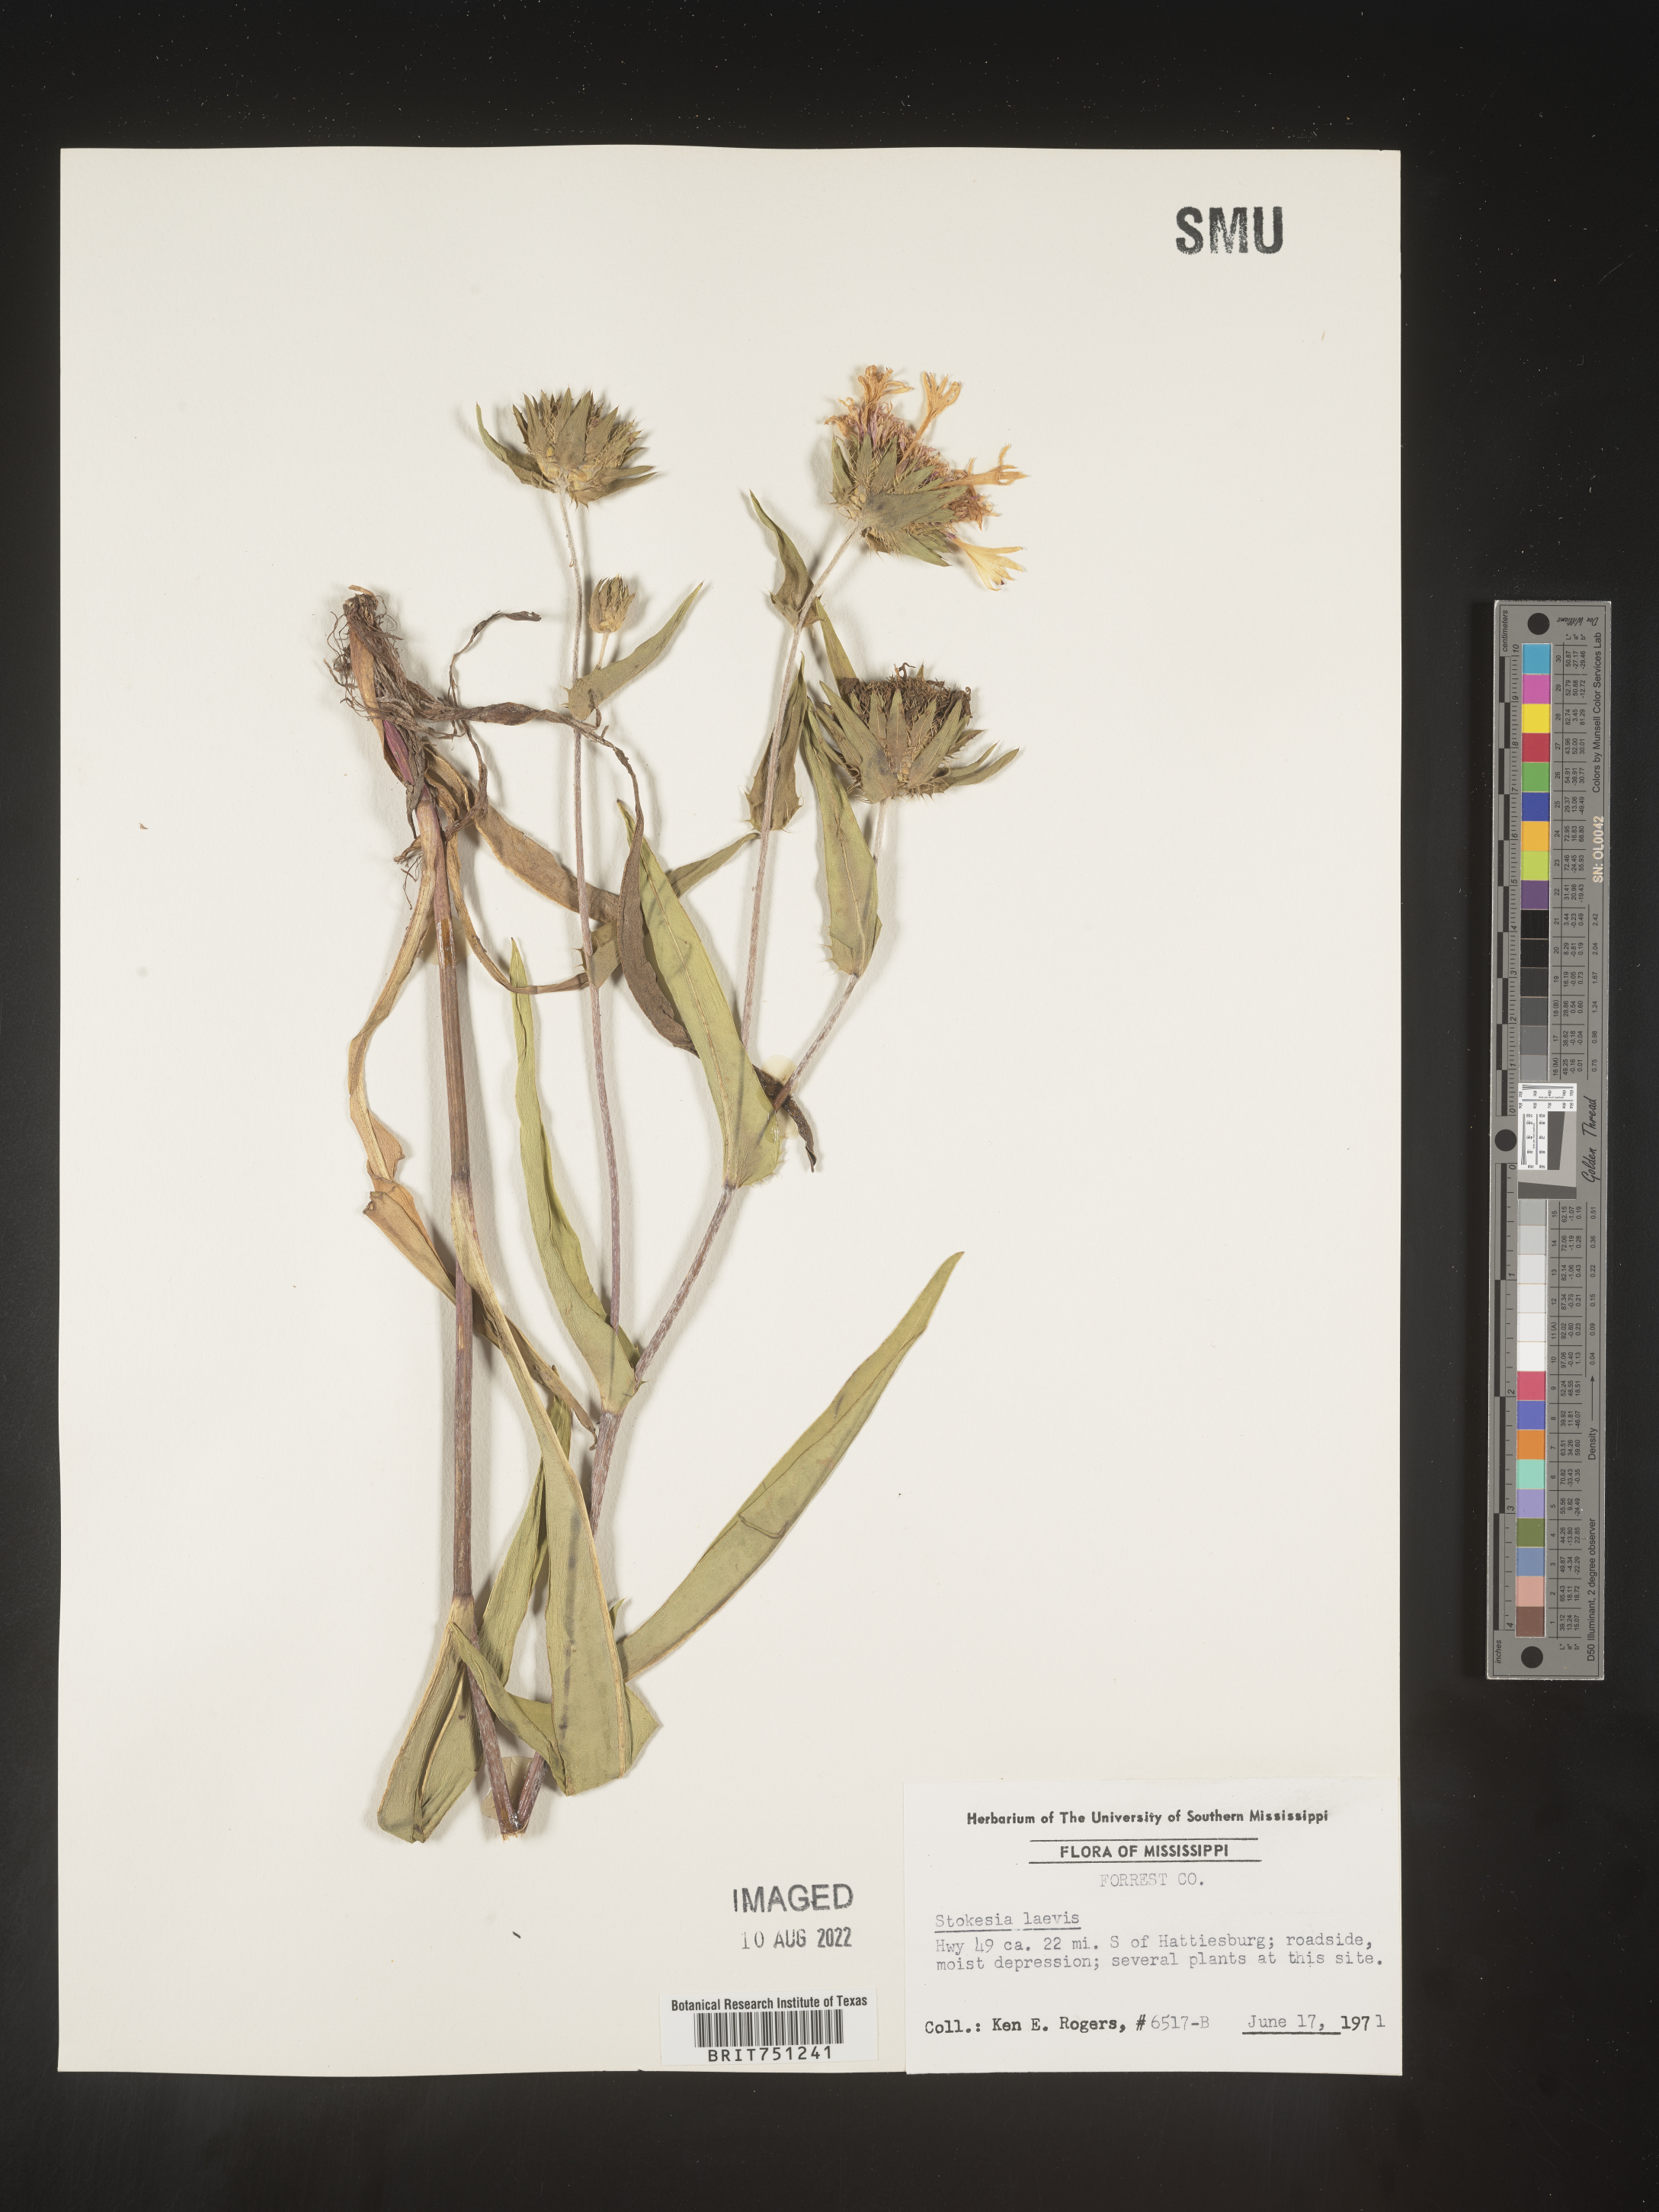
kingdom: Plantae
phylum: Tracheophyta
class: Magnoliopsida
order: Asterales
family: Asteraceae
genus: Stokesia
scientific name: Stokesia
